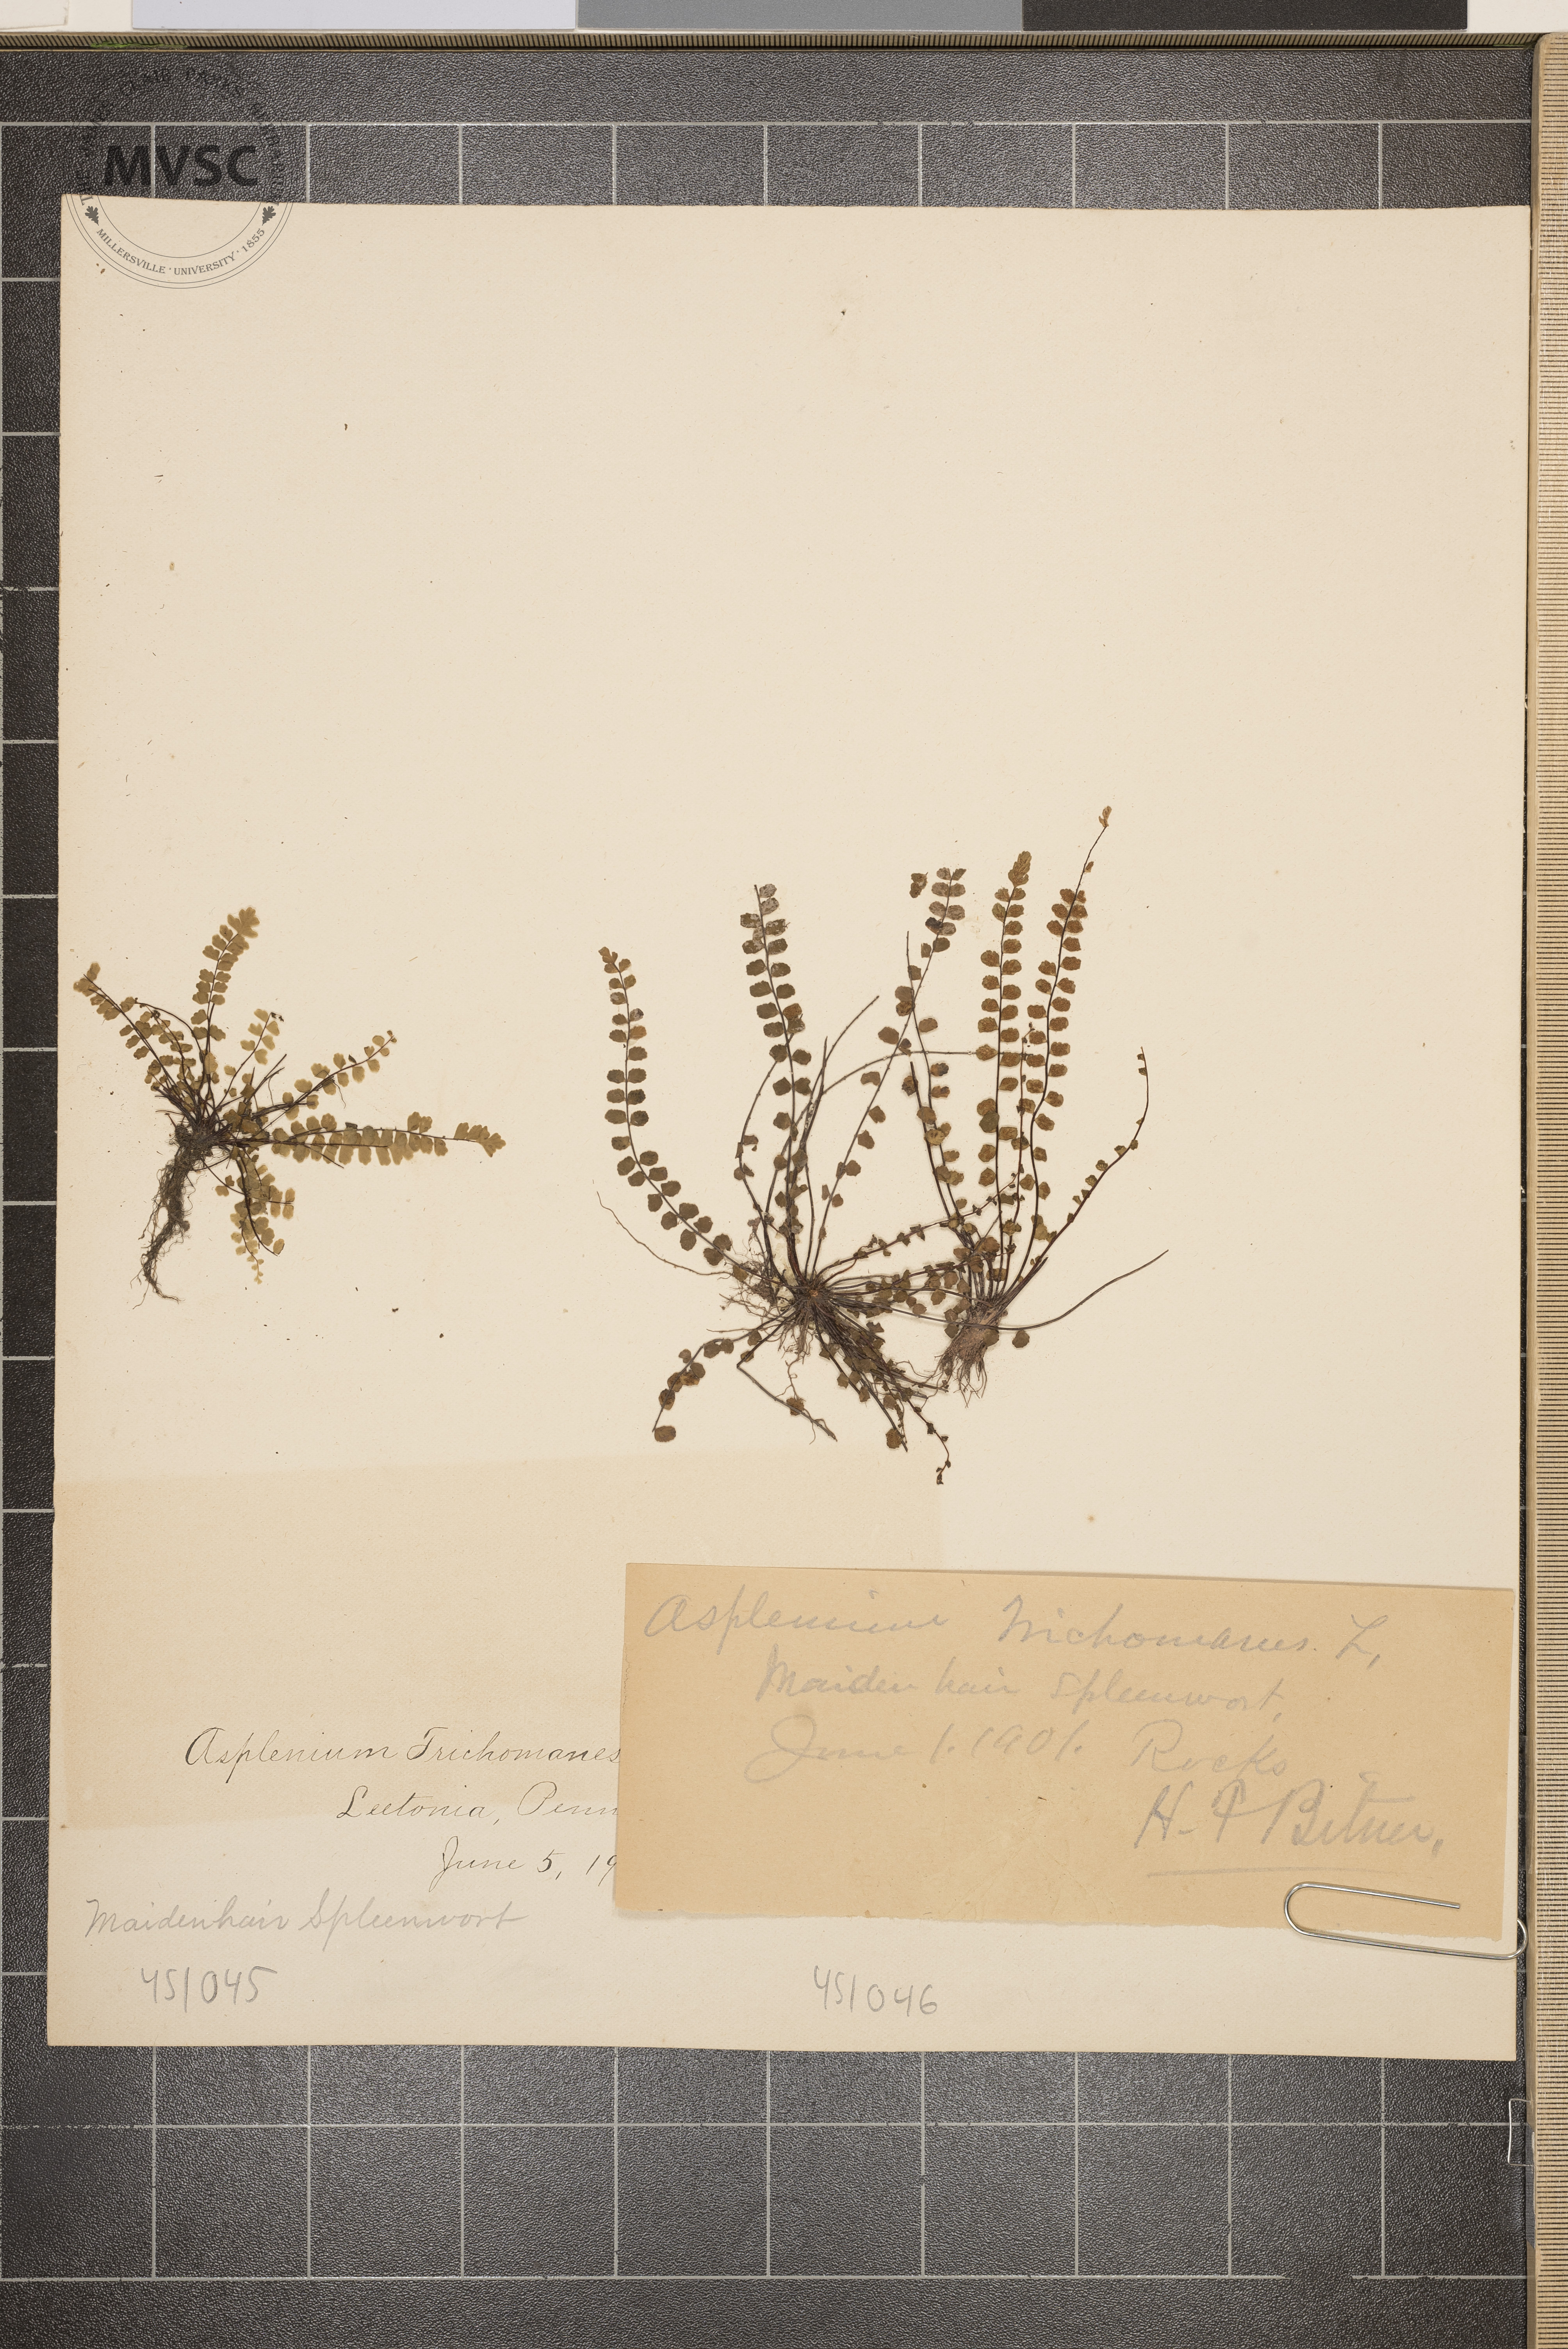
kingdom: Plantae
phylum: Tracheophyta
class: Polypodiopsida
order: Polypodiales
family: Aspleniaceae
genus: Asplenium
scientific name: Asplenium trichomanes
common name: Maidenhair Spleenwort
